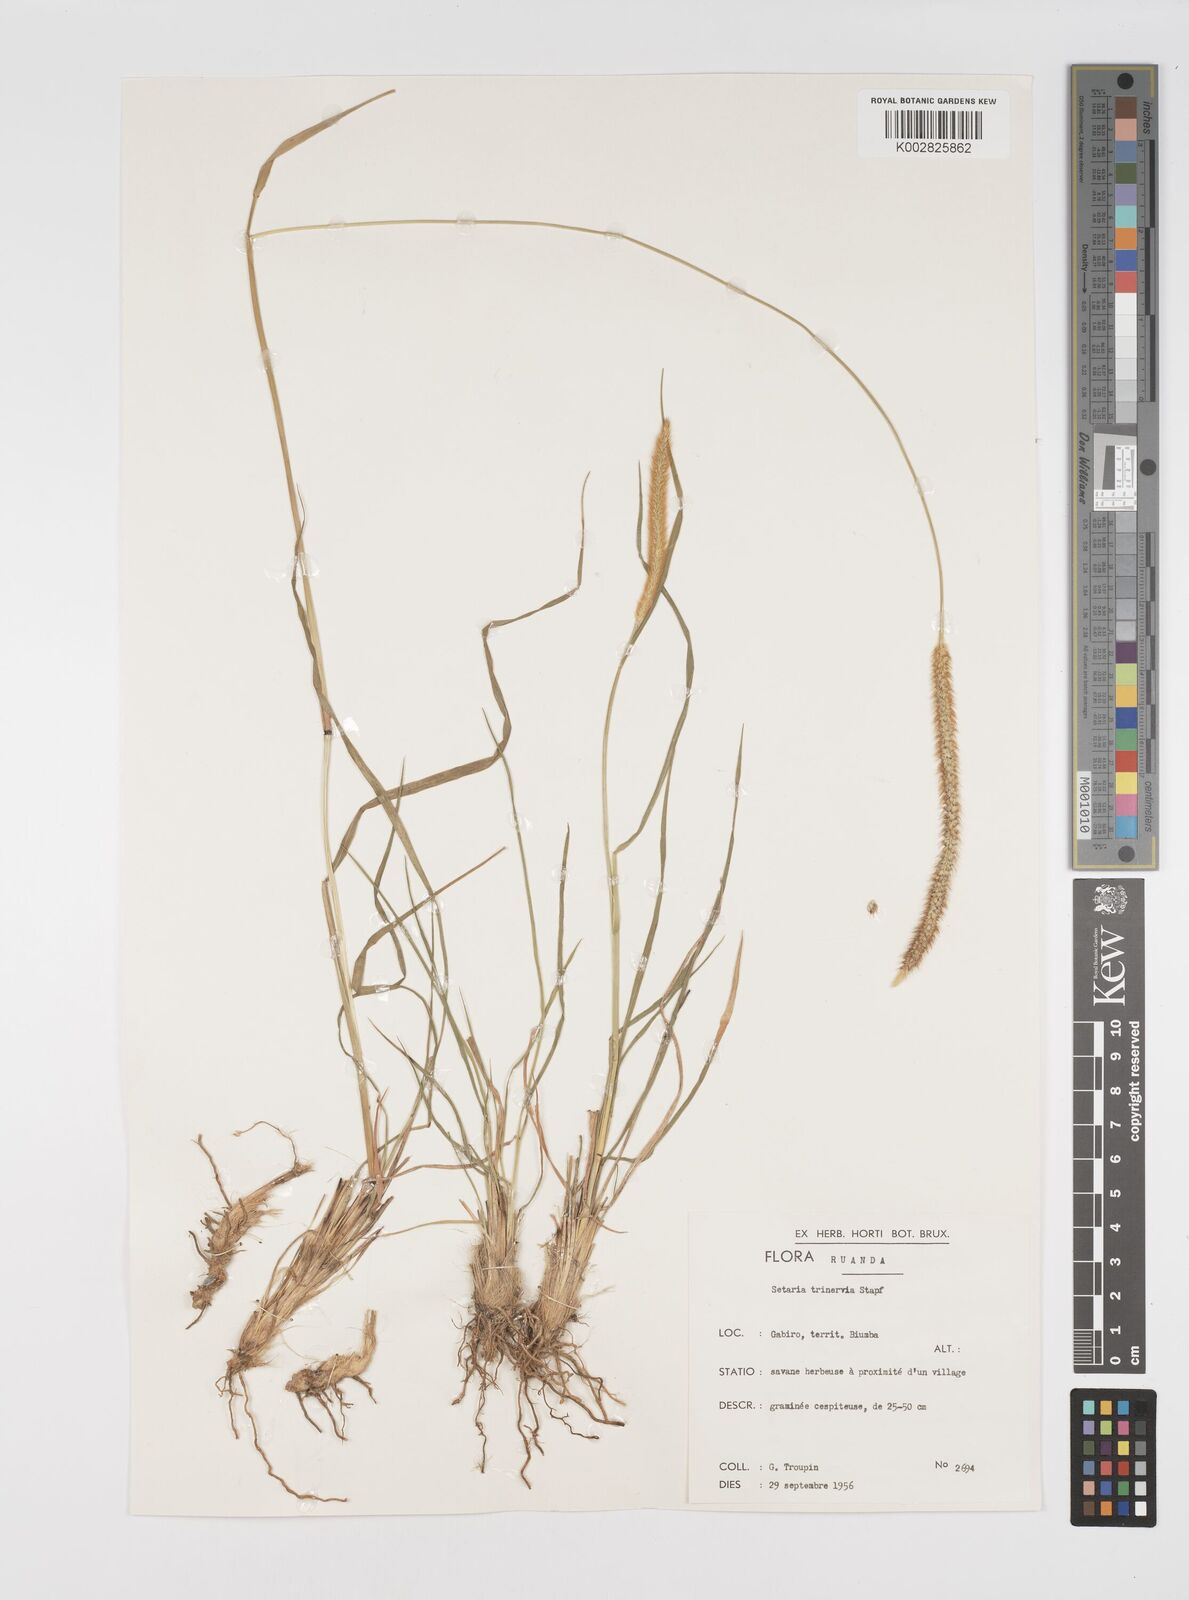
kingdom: Plantae
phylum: Tracheophyta
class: Liliopsida
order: Poales
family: Poaceae
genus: Setaria
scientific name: Setaria sphacelata
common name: African bristlegrass
